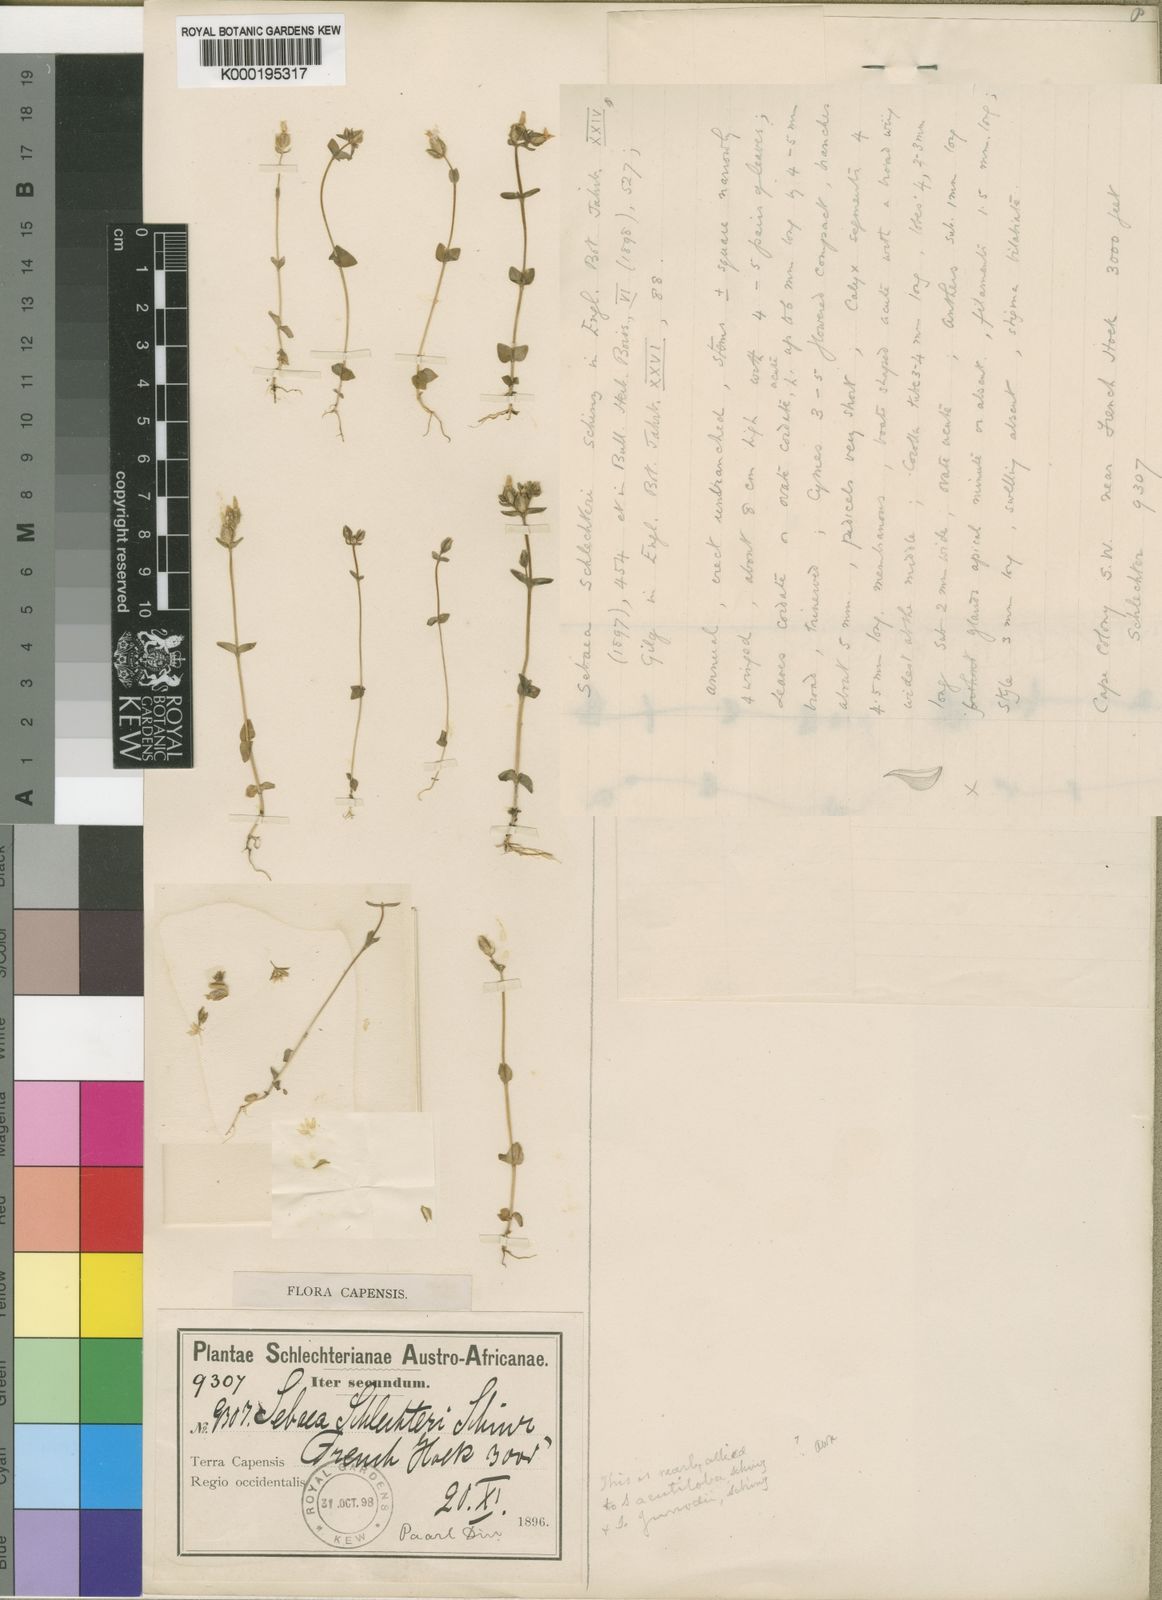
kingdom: Plantae
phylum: Tracheophyta
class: Magnoliopsida
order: Gentianales
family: Gentianaceae
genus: Sebaea
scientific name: Sebaea schlechteri
